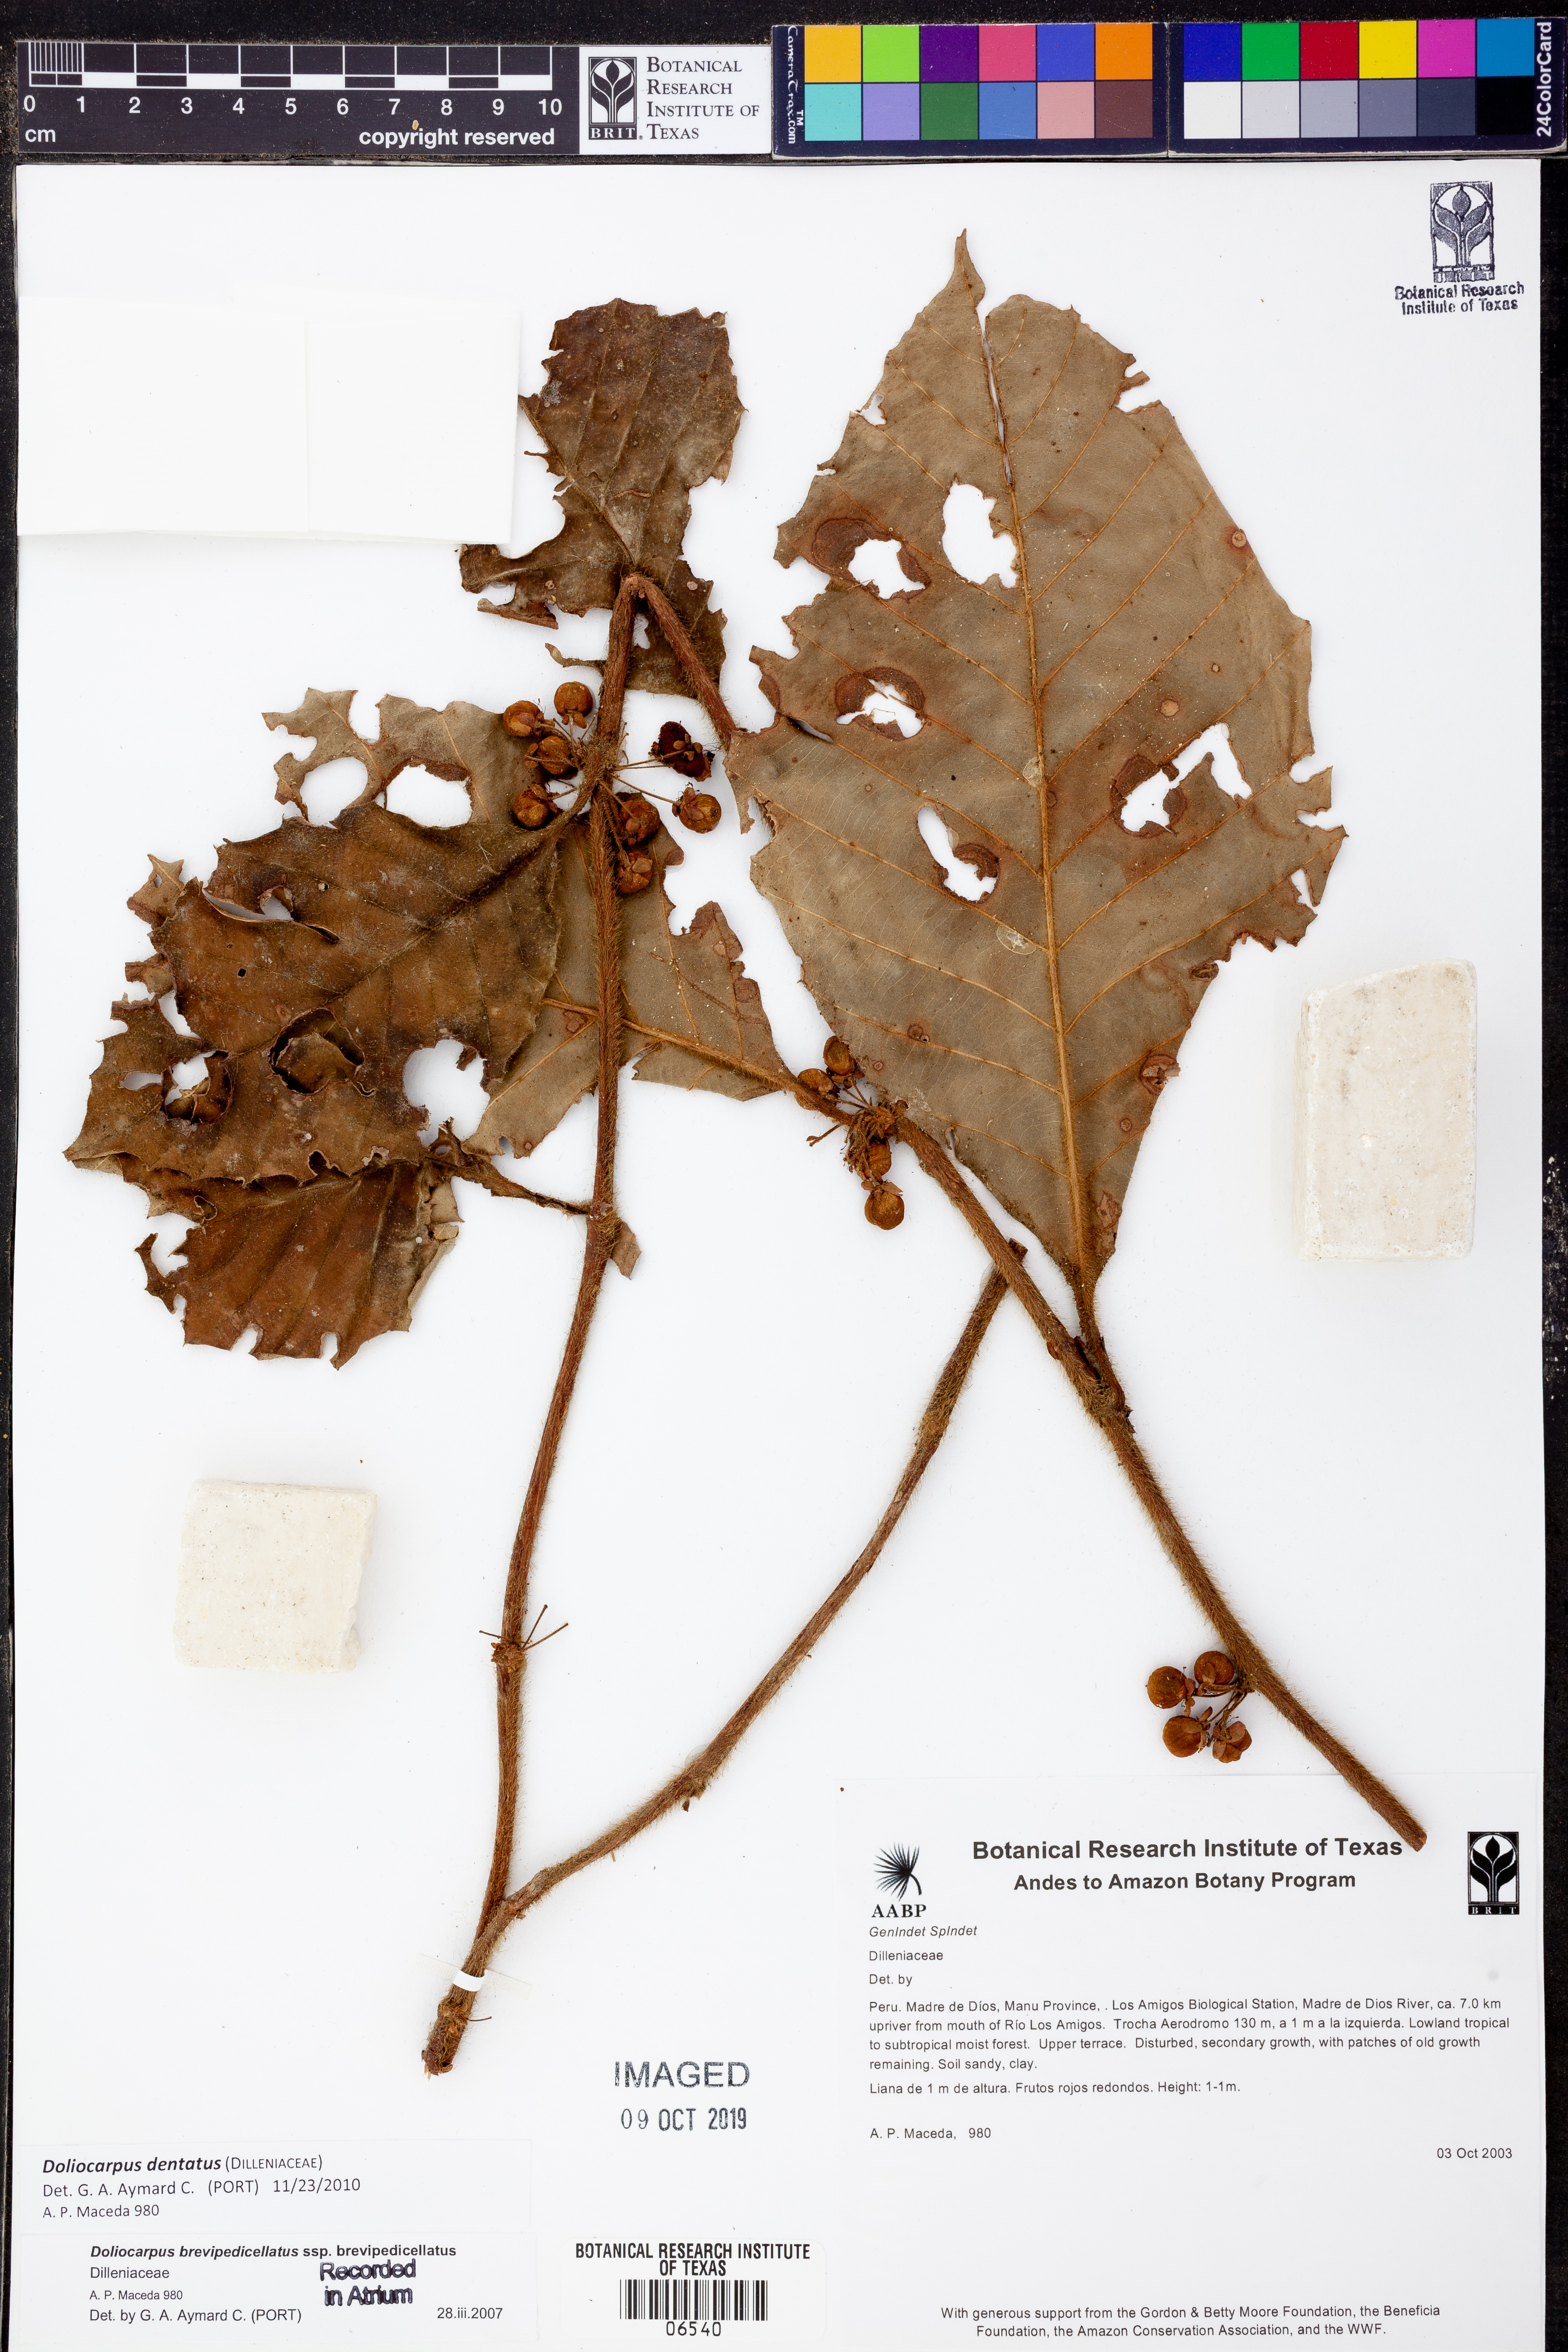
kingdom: Plantae
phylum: Tracheophyta
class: Magnoliopsida
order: Dilleniales
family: Dilleniaceae
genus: Doliocarpus
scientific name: Doliocarpus
